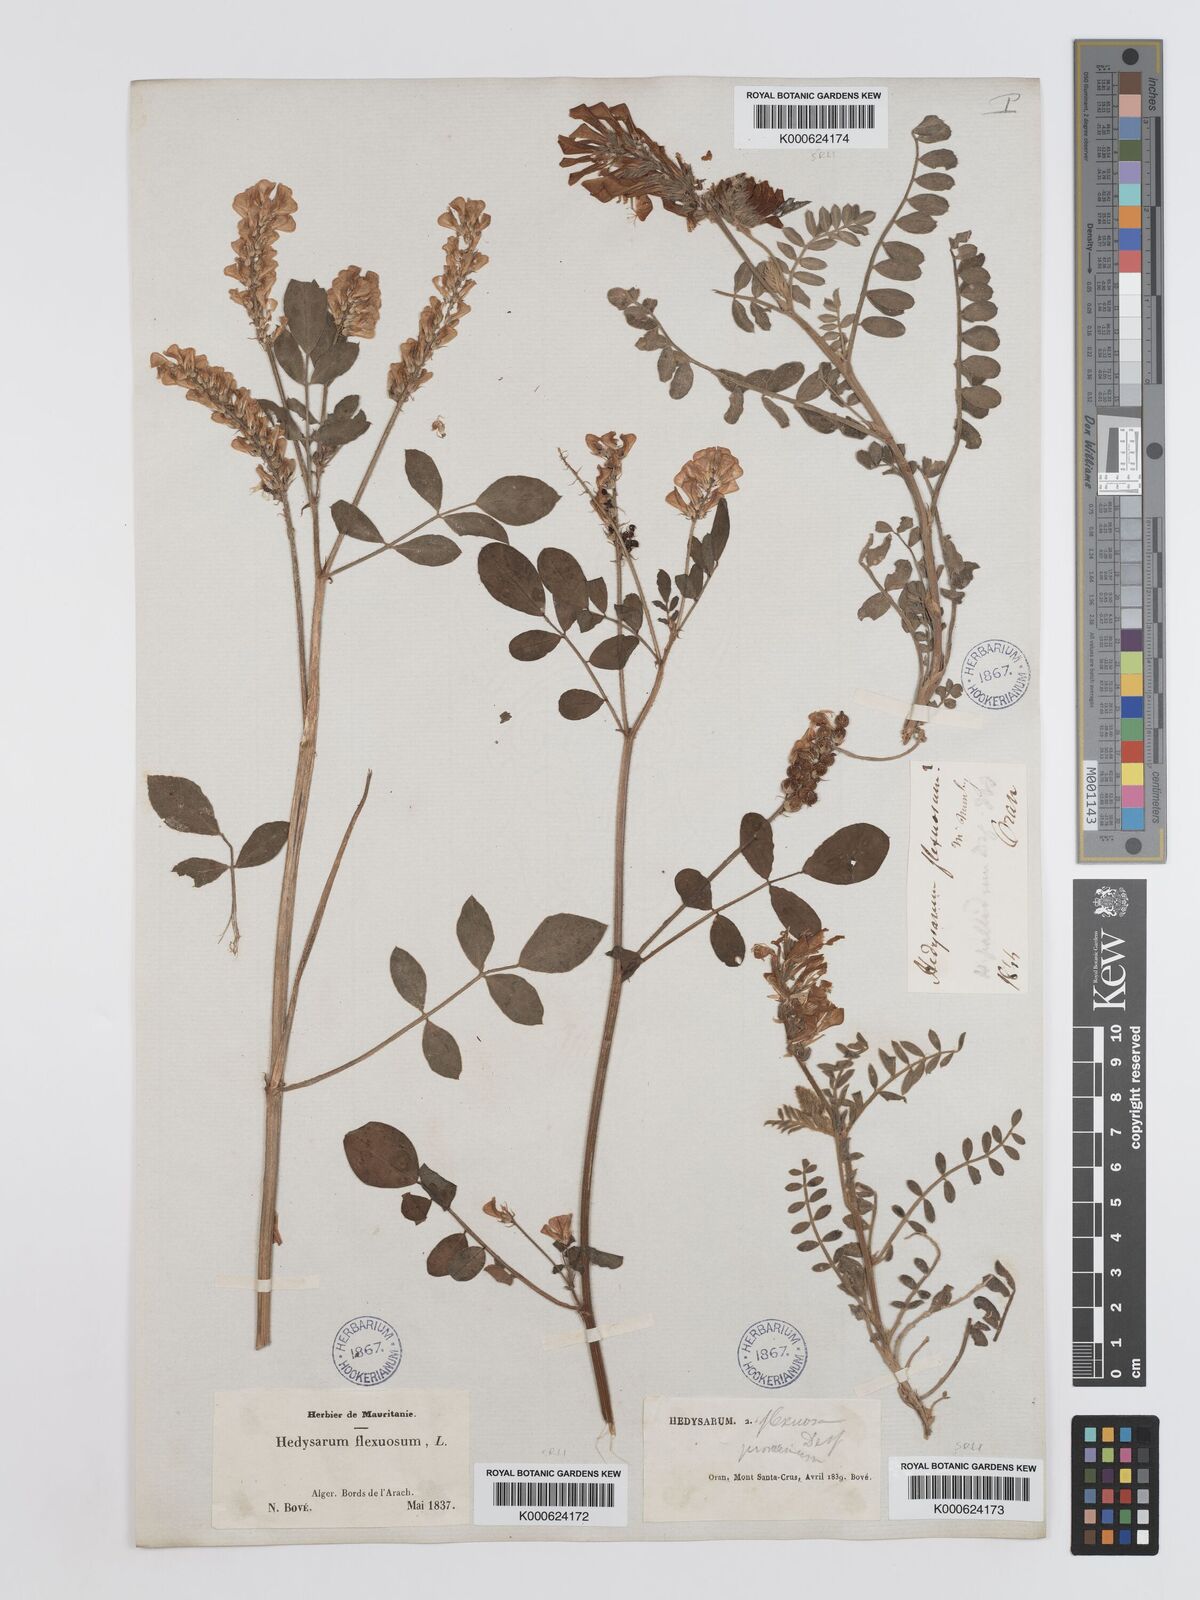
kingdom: Plantae
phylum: Tracheophyta
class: Magnoliopsida
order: Fabales
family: Fabaceae
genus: Sulla
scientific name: Sulla flexuosa
